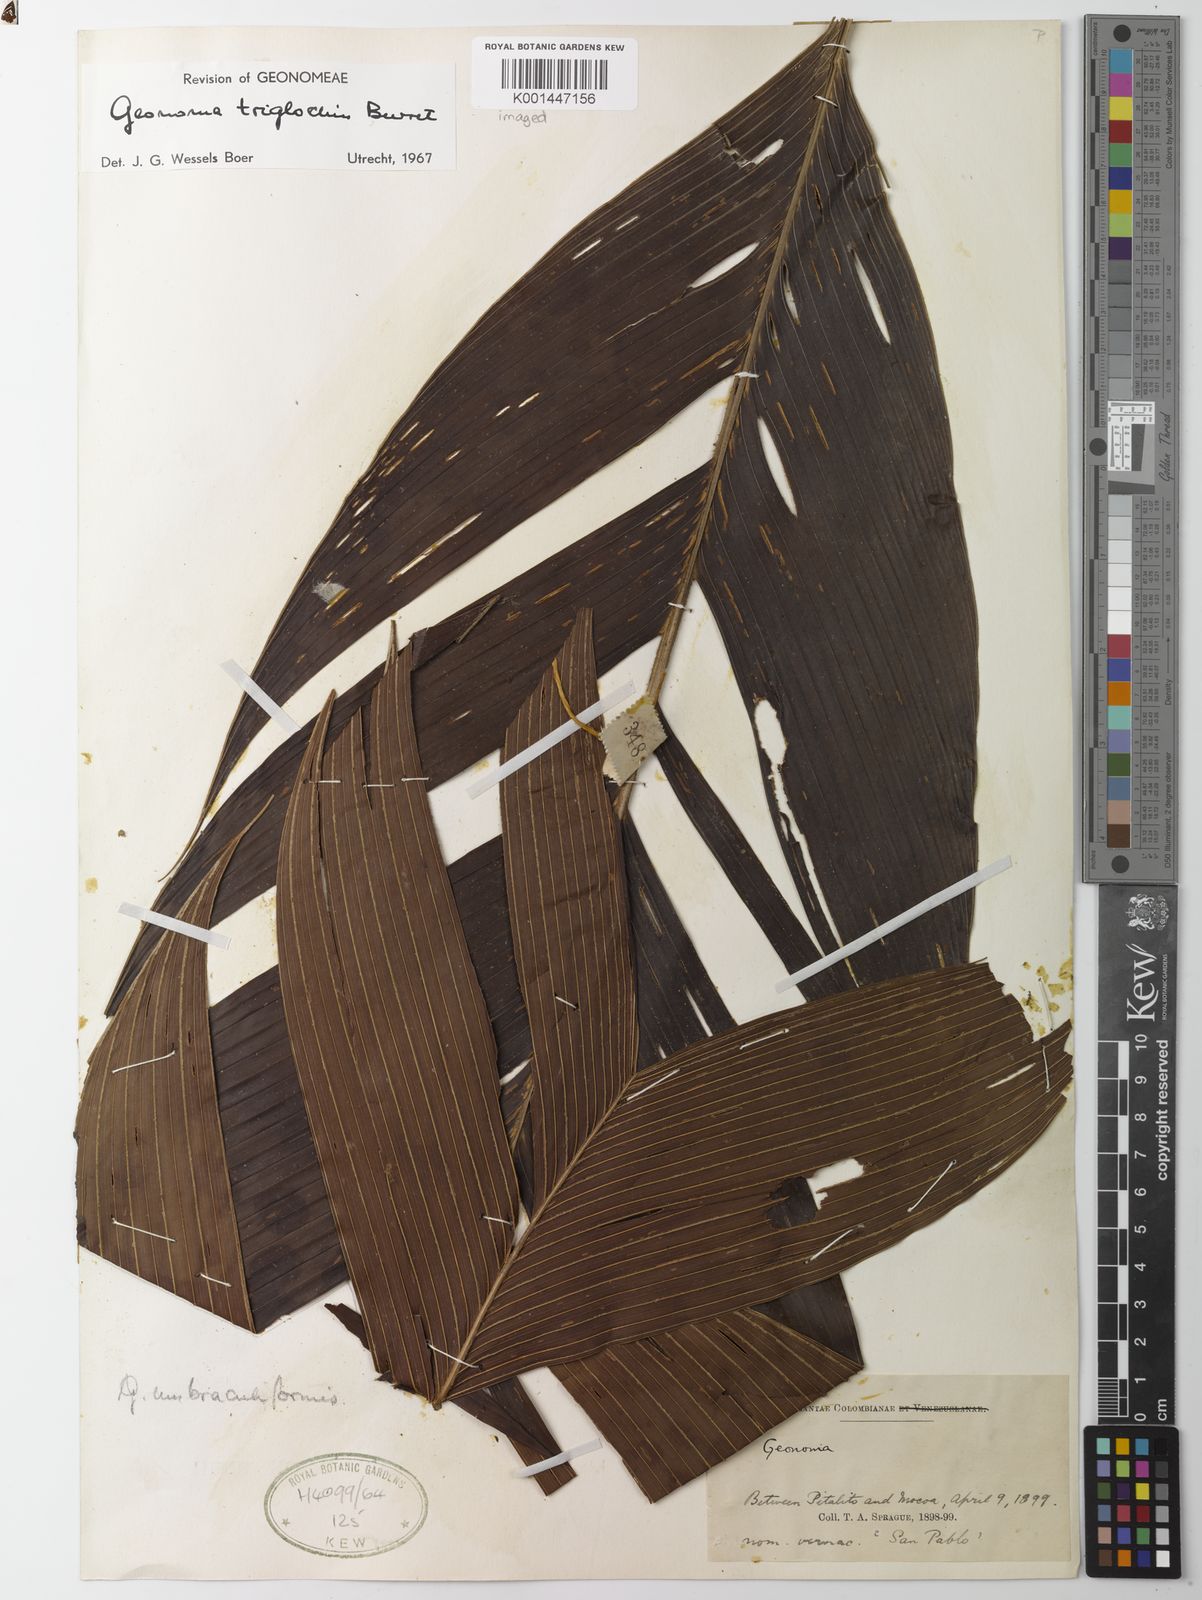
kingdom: Plantae
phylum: Tracheophyta
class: Liliopsida
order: Arecales
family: Arecaceae
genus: Geonoma
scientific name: Geonoma triglochin
